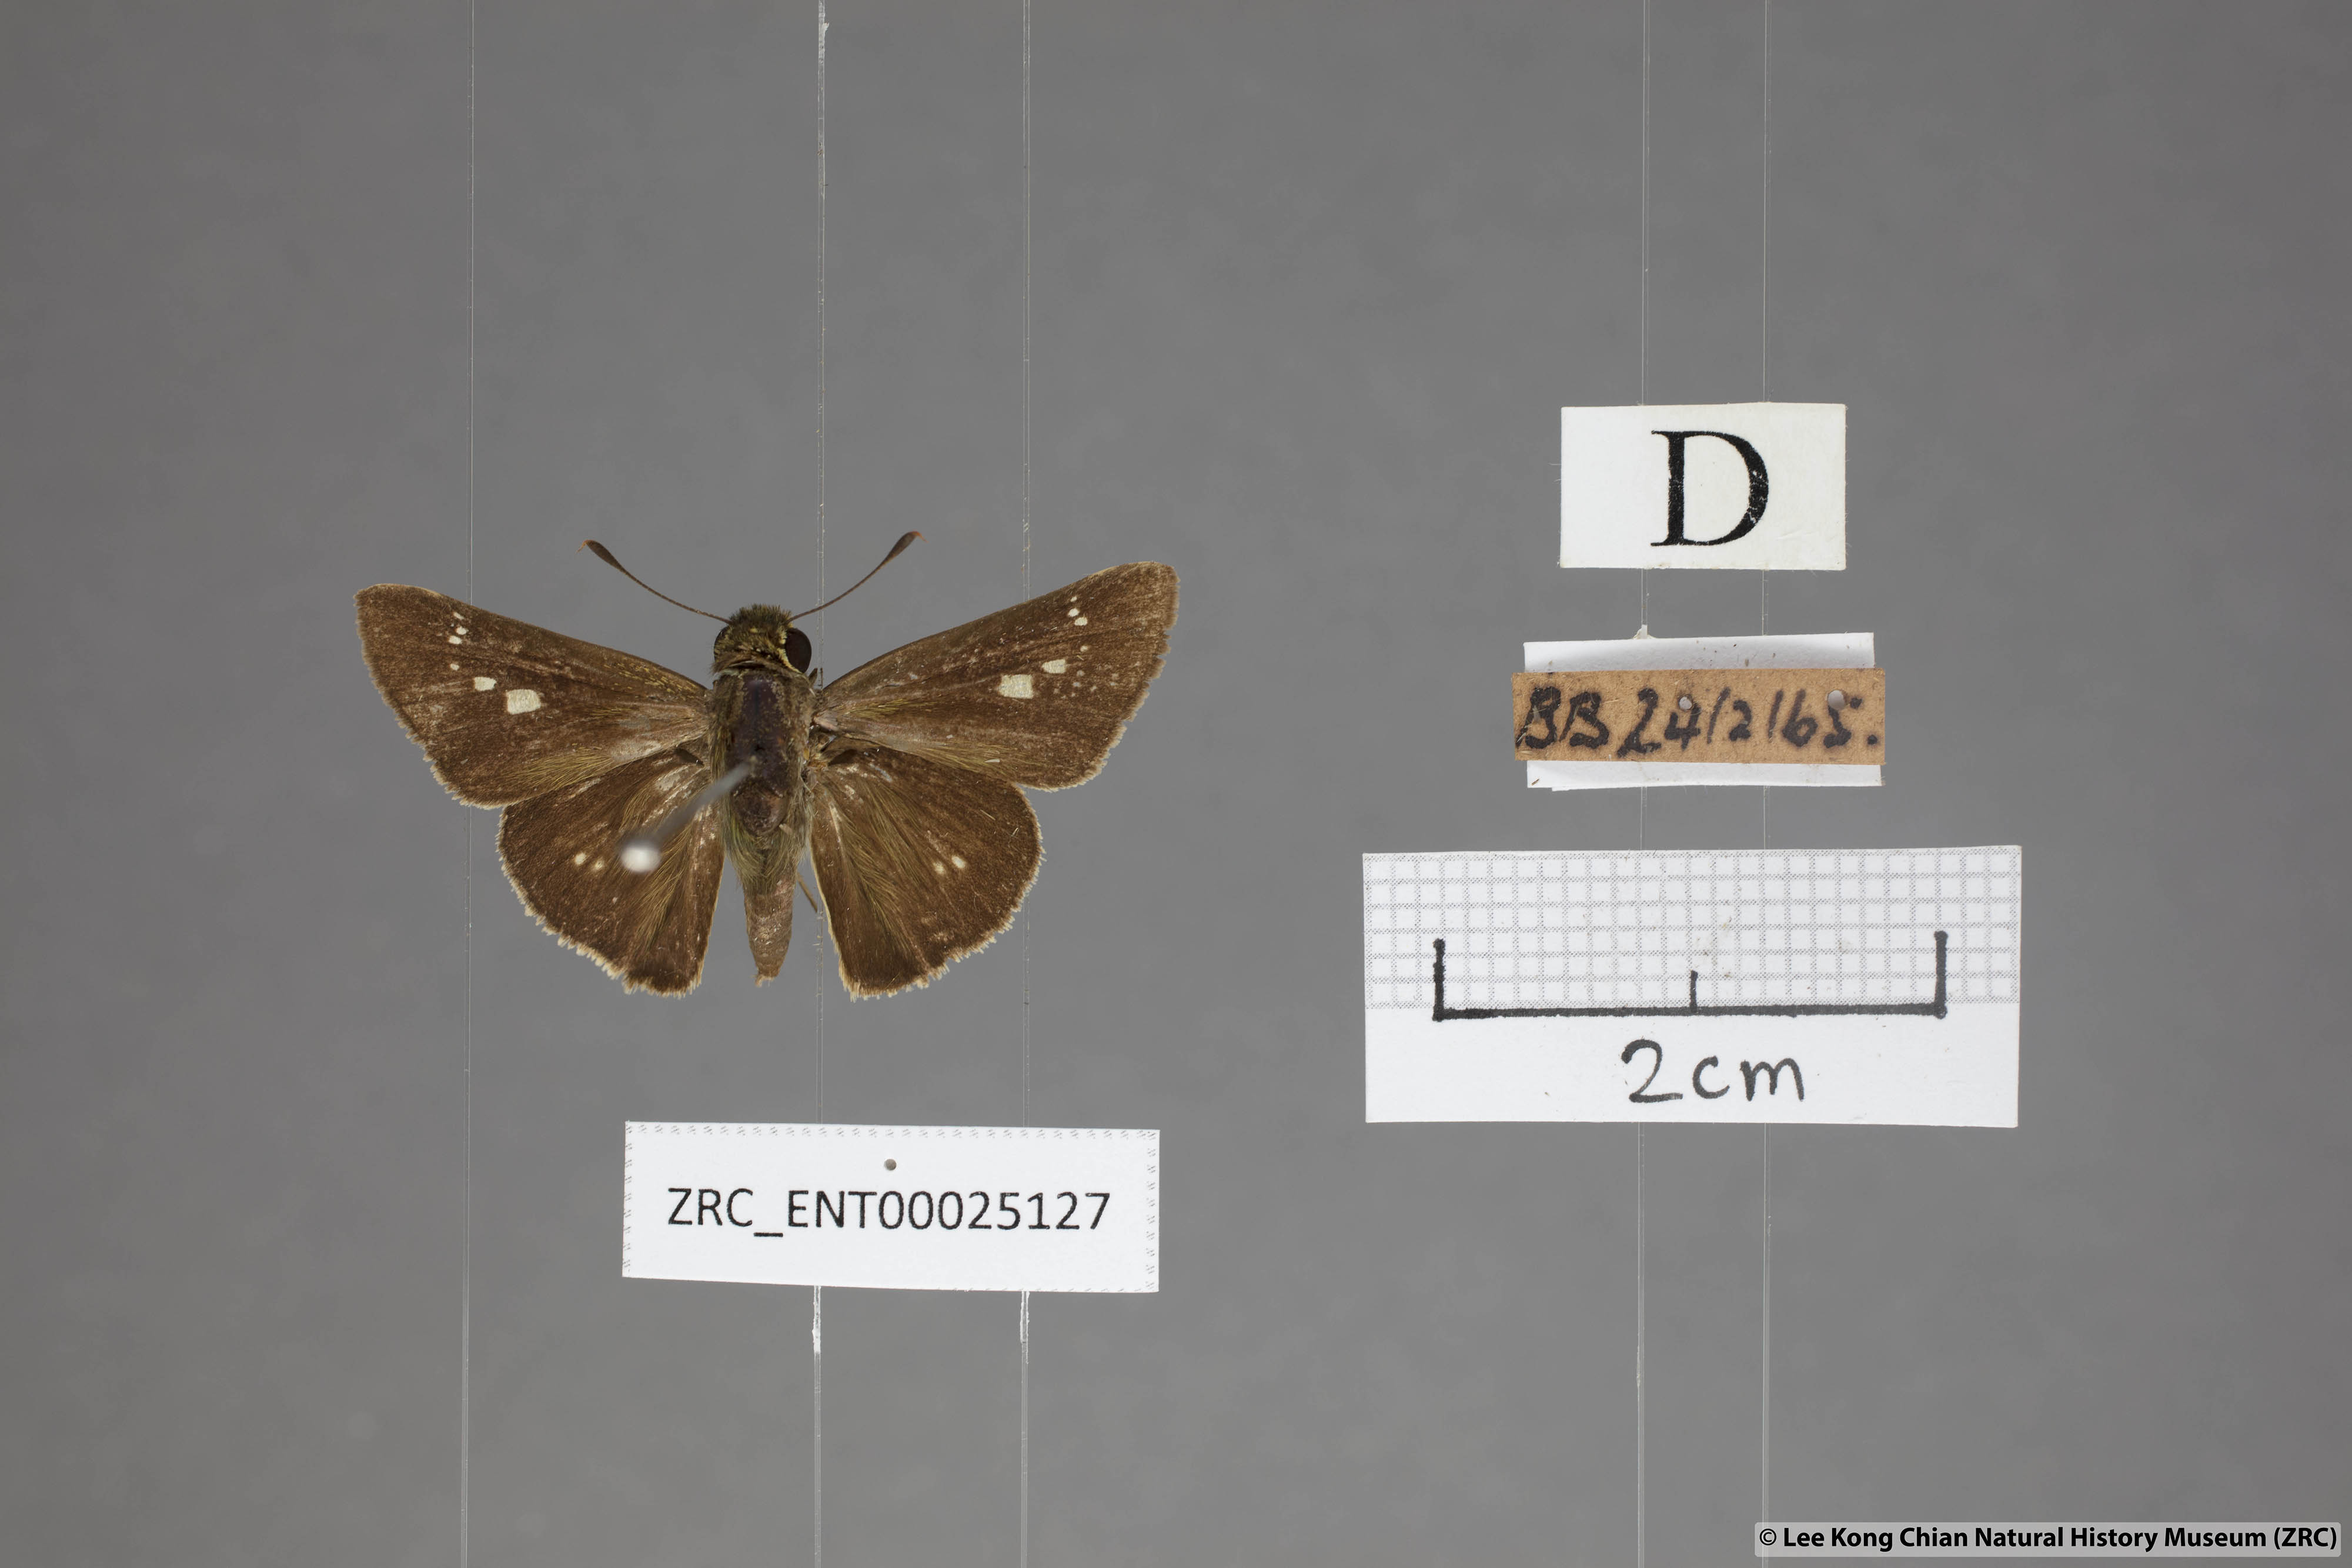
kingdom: Animalia
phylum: Arthropoda
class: Insecta
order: Lepidoptera
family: Hesperiidae
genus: Parnara
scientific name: Parnara naso
